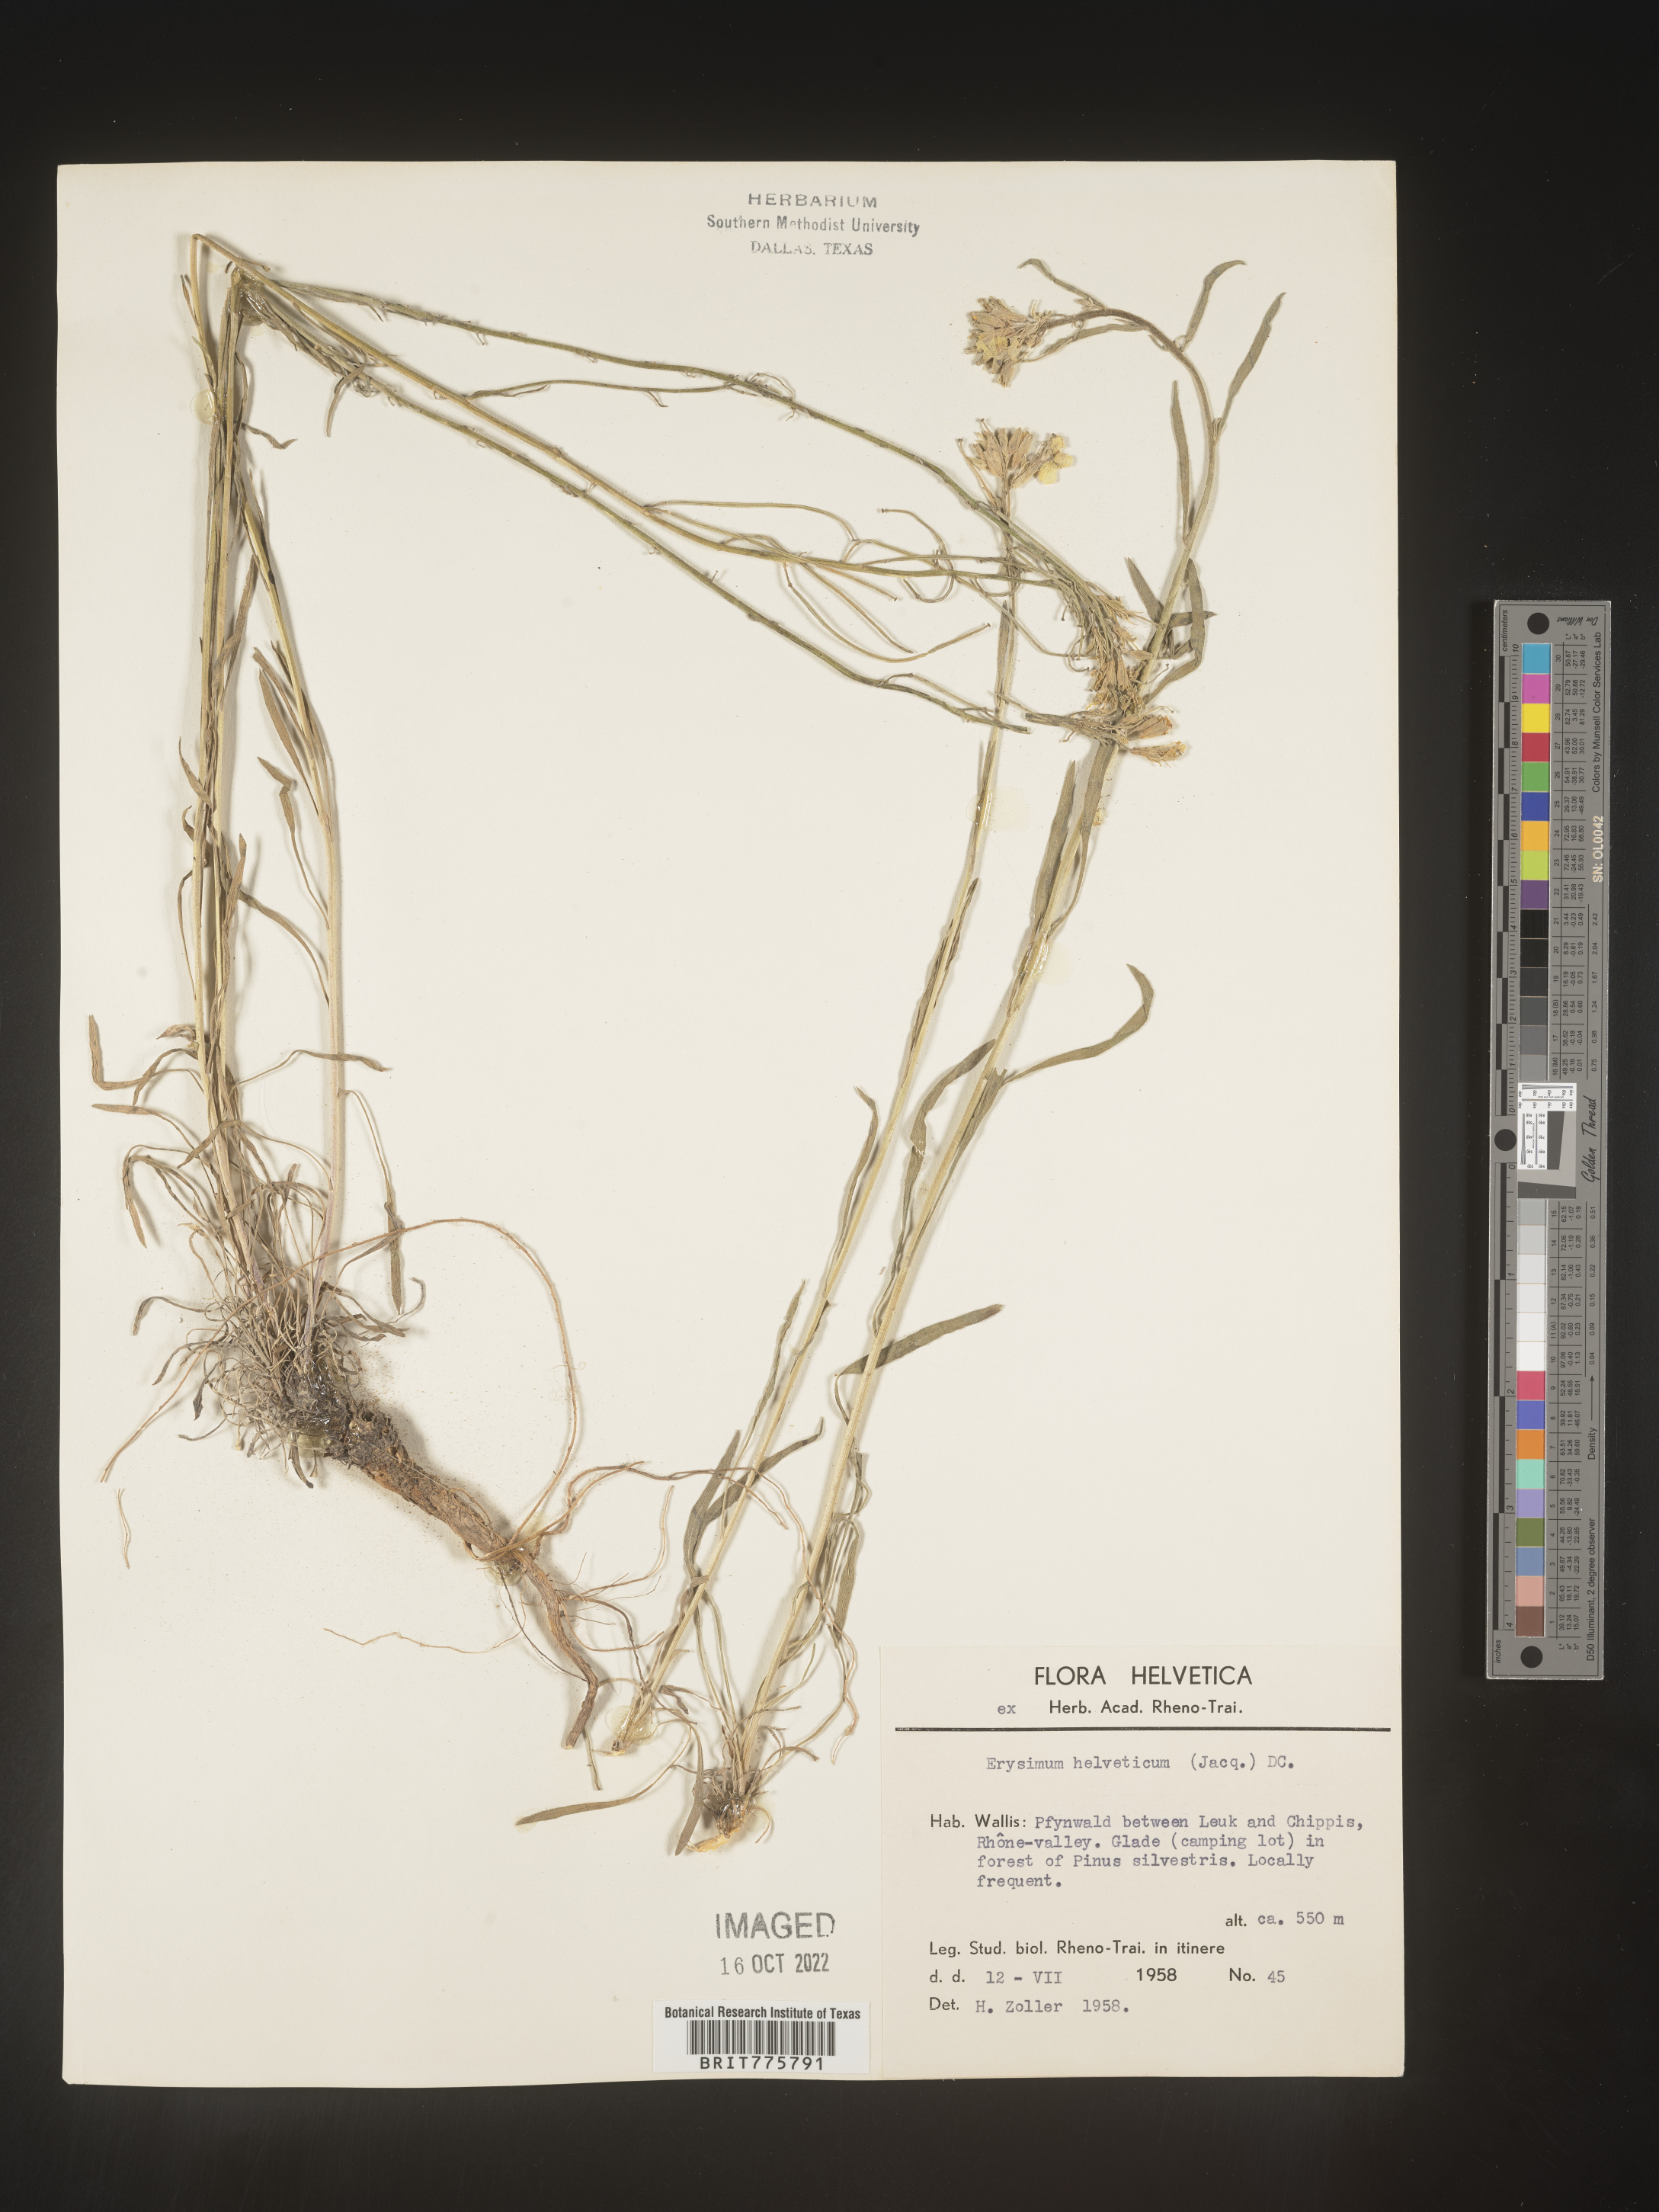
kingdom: Plantae
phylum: Tracheophyta
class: Magnoliopsida
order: Brassicales
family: Brassicaceae
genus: Erysimum
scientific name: Erysimum
